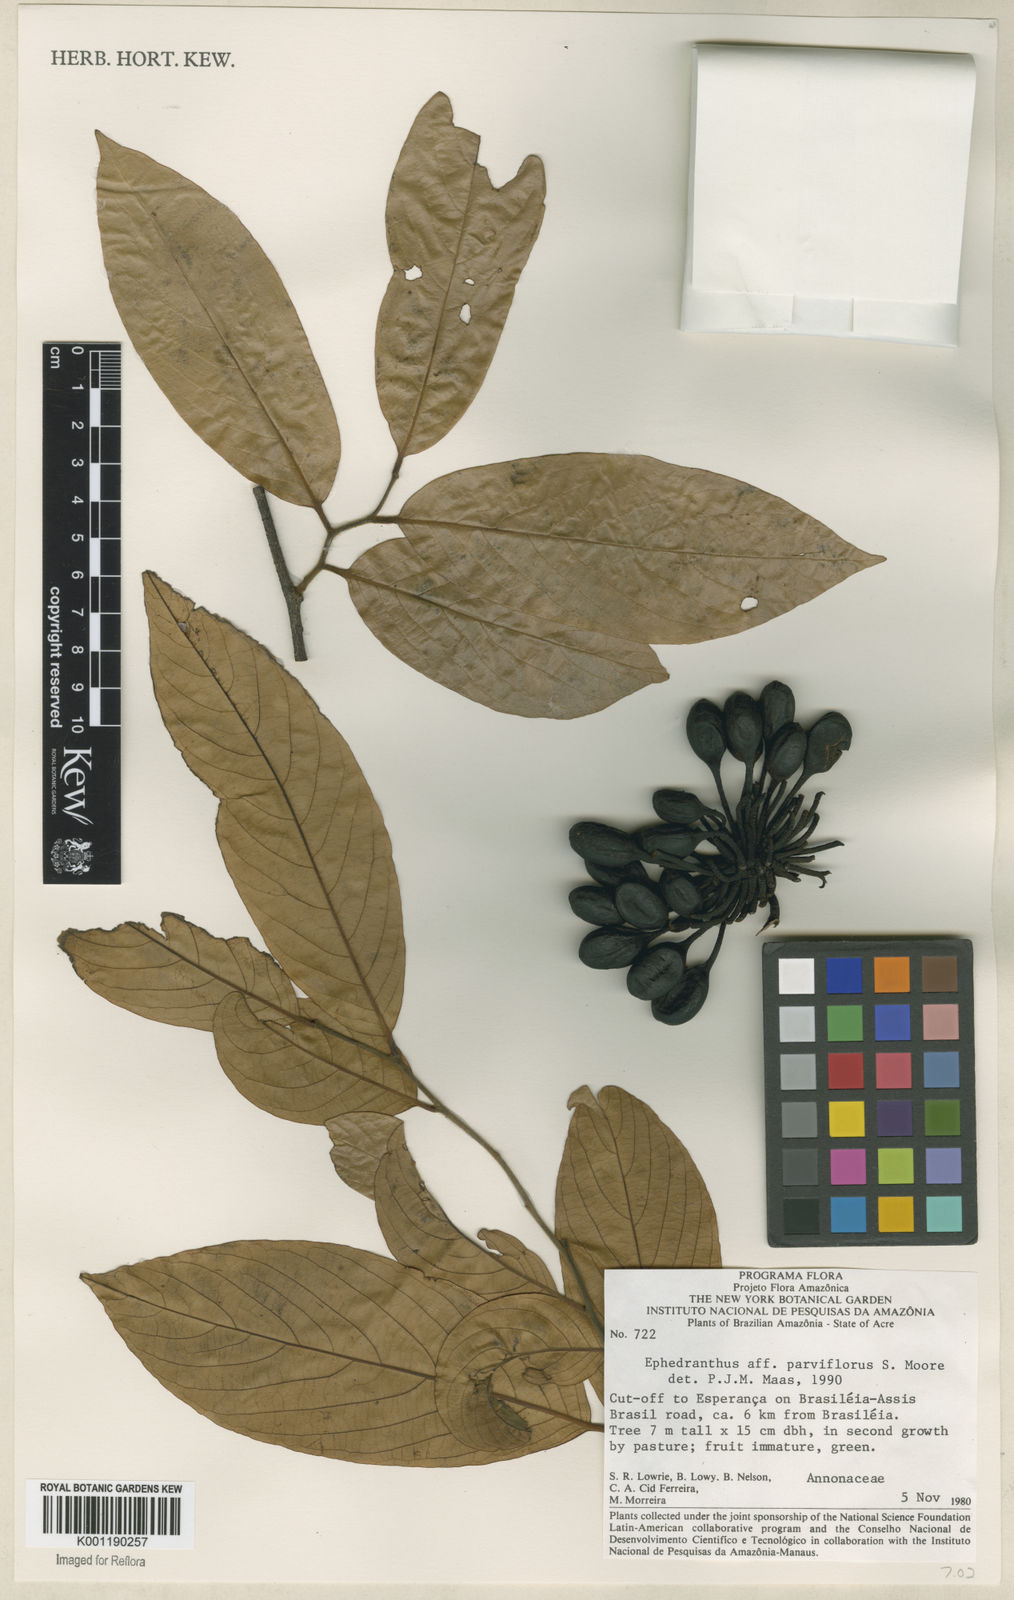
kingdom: Plantae
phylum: Tracheophyta
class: Magnoliopsida
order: Magnoliales
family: Annonaceae
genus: Ephedranthus
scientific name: Ephedranthus parviflorus
